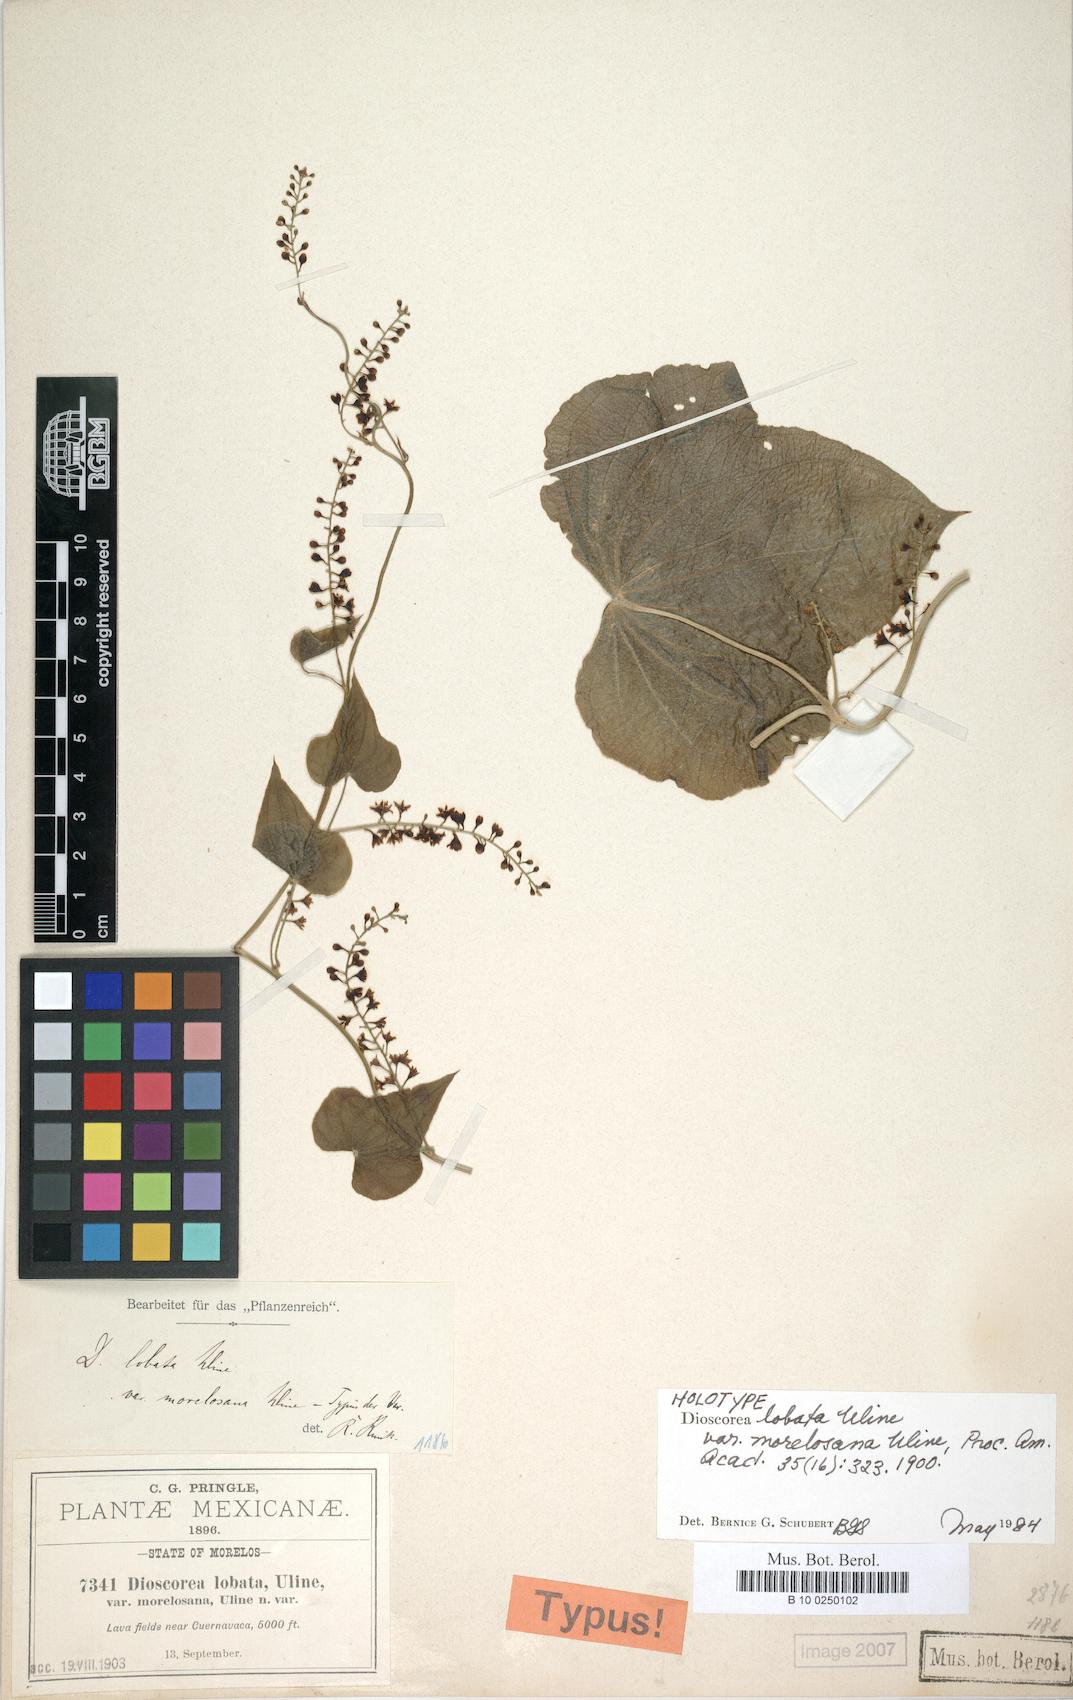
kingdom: Plantae
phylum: Tracheophyta
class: Liliopsida
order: Dioscoreales
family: Dioscoreaceae
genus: Dioscorea
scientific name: Dioscorea galeottiana
